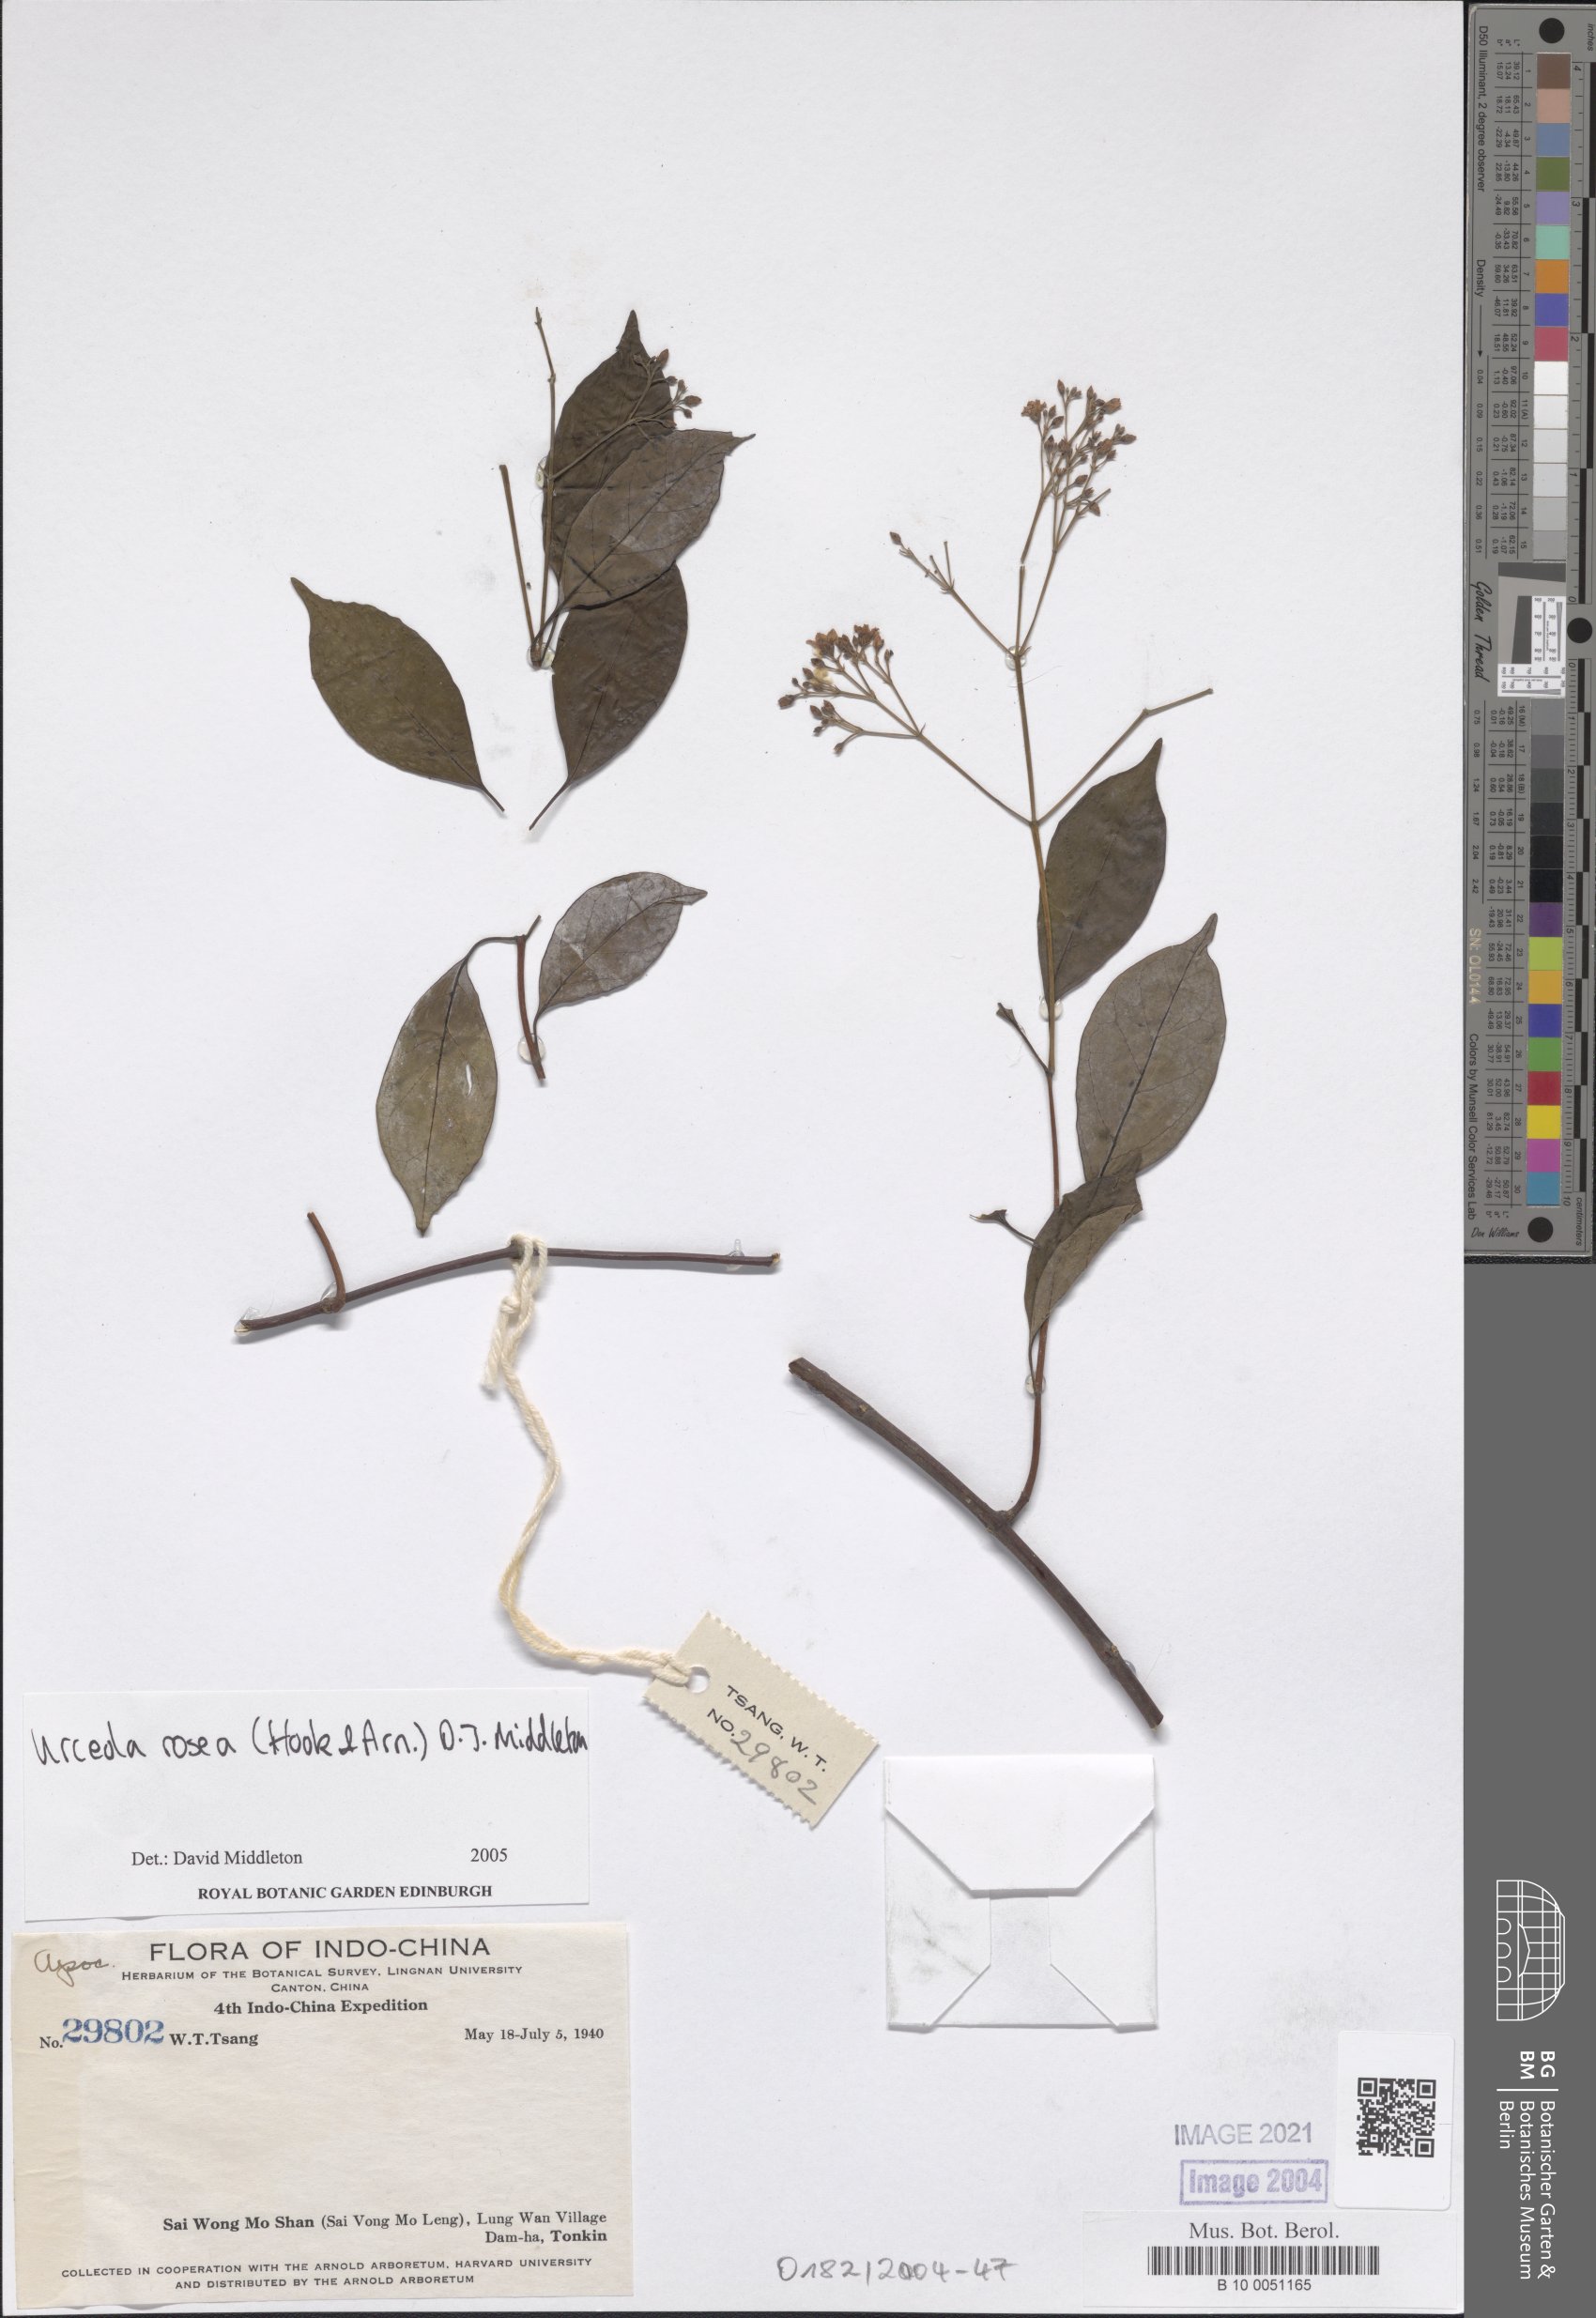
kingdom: Plantae
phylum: Tracheophyta
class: Magnoliopsida
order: Gentianales
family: Apocynaceae
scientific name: Apocynaceae
